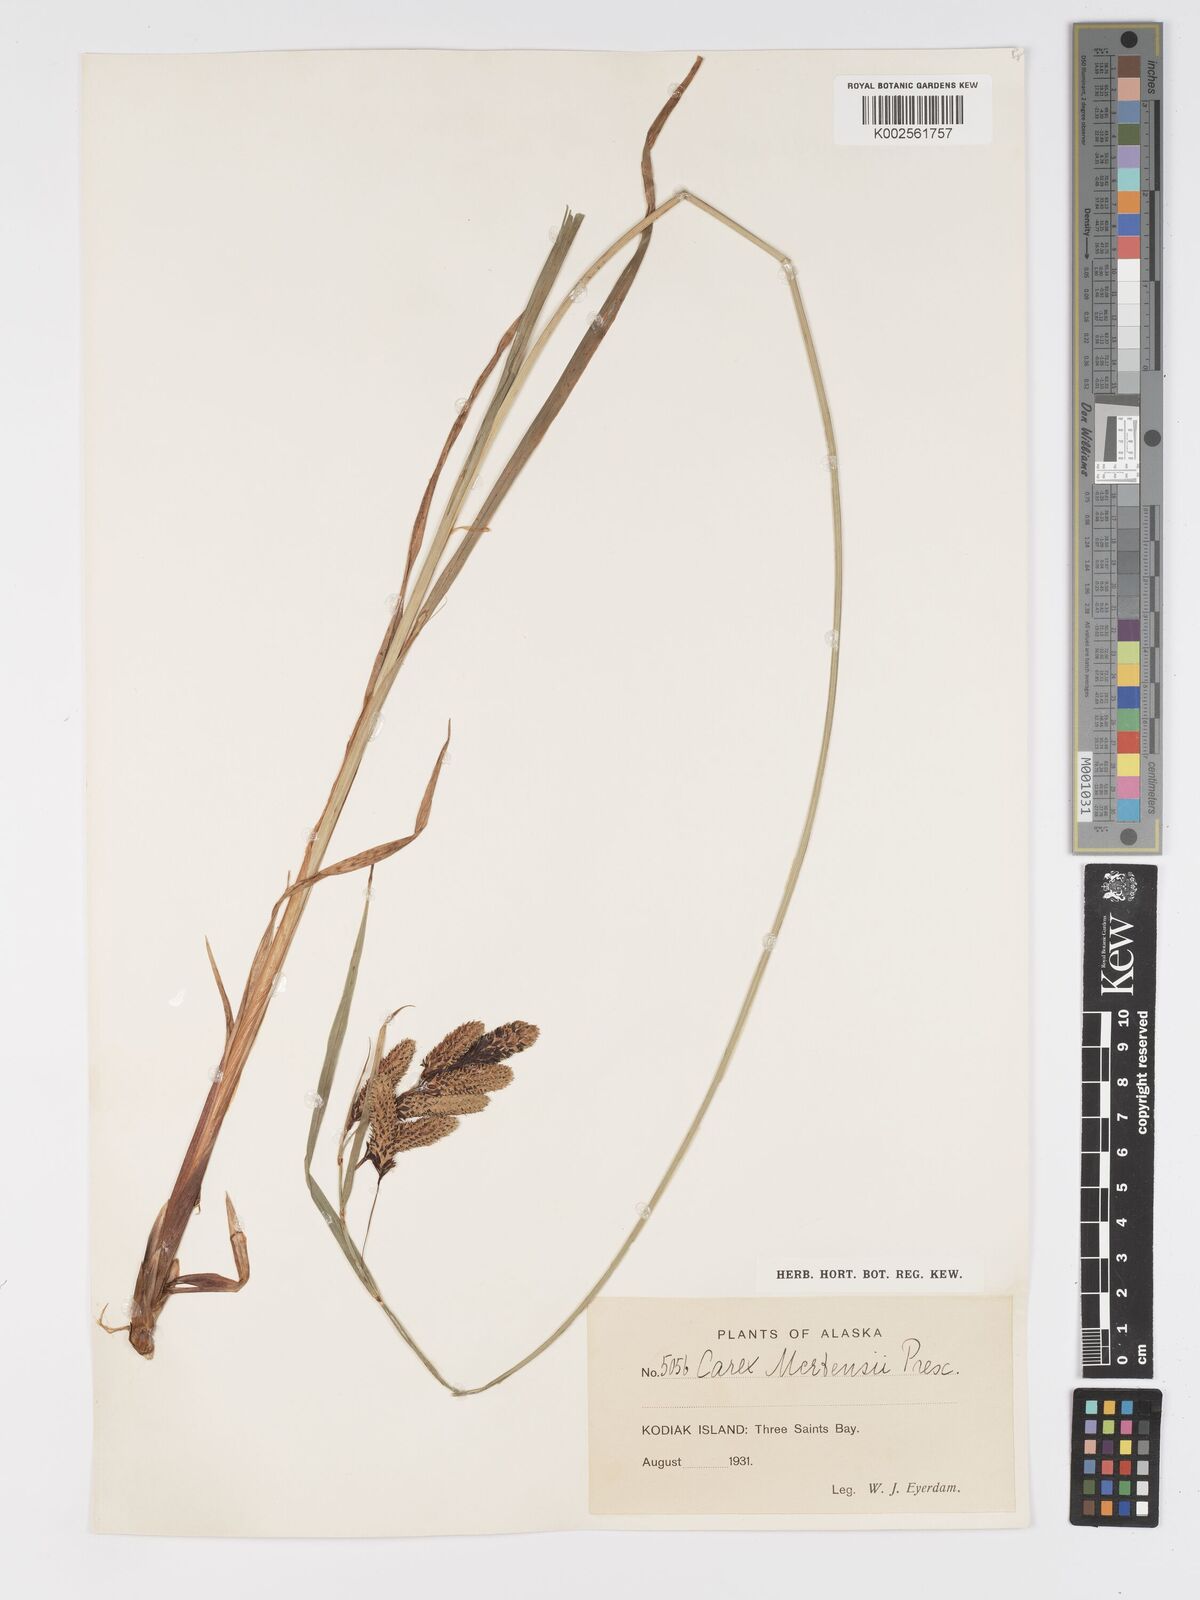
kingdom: Plantae
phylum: Tracheophyta
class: Liliopsida
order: Poales
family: Cyperaceae
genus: Carex
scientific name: Carex mertensii
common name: Mertens' sedge
